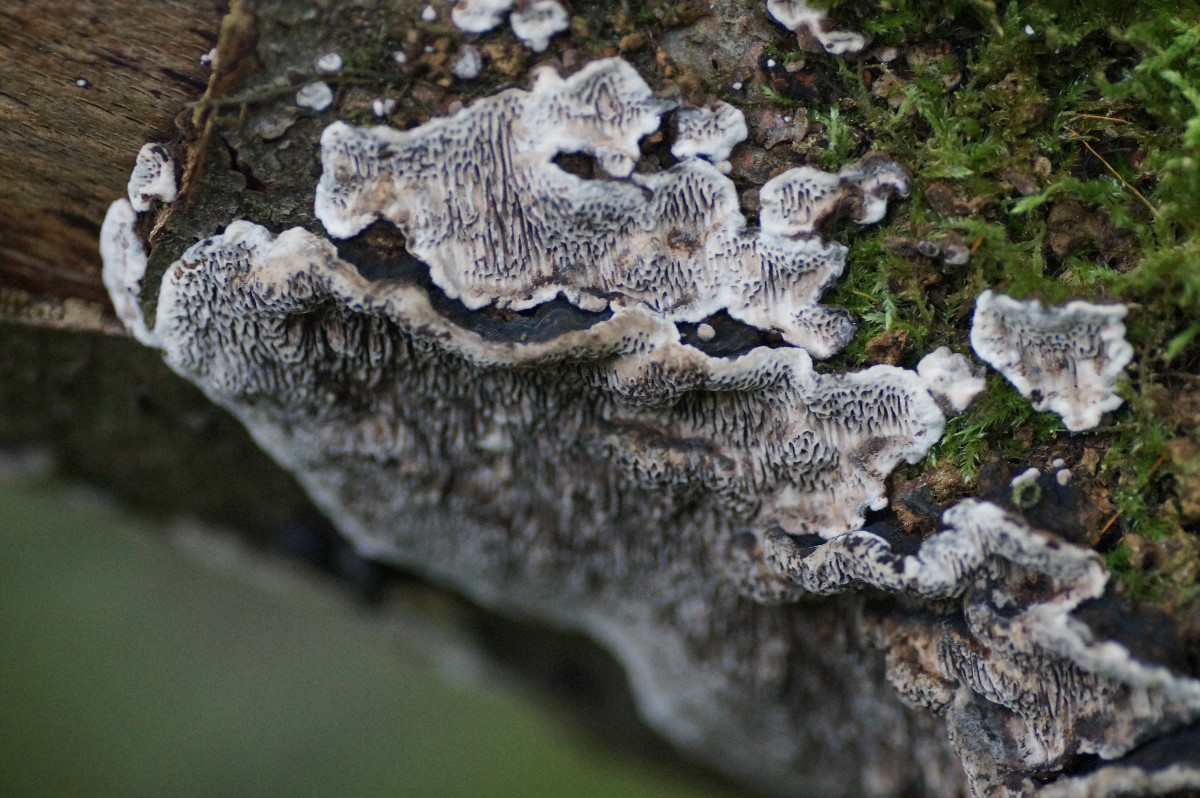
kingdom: Fungi
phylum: Basidiomycota
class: Agaricomycetes
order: Polyporales
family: Polyporaceae
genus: Podofomes
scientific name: Podofomes mollis
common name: blød begporesvamp
